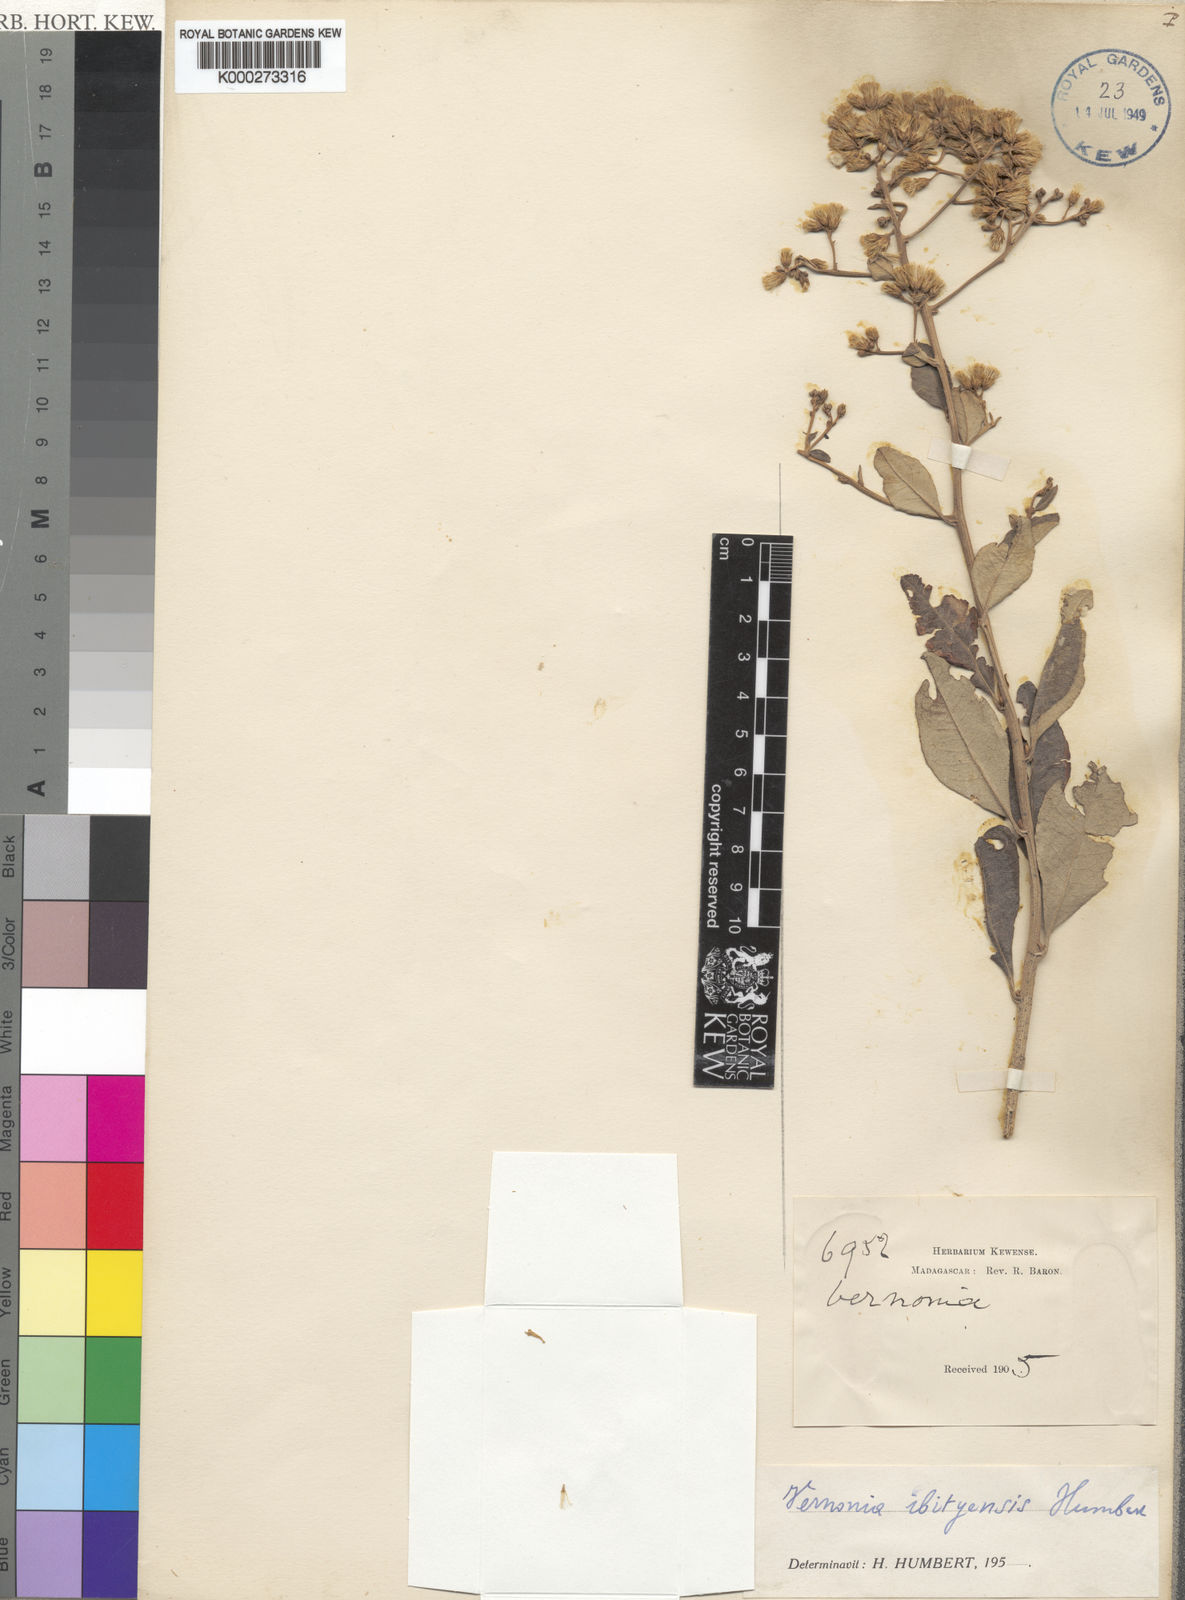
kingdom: Plantae
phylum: Tracheophyta
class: Magnoliopsida
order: Asterales
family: Asteraceae
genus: Distephanus
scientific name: Distephanus ibityensis
